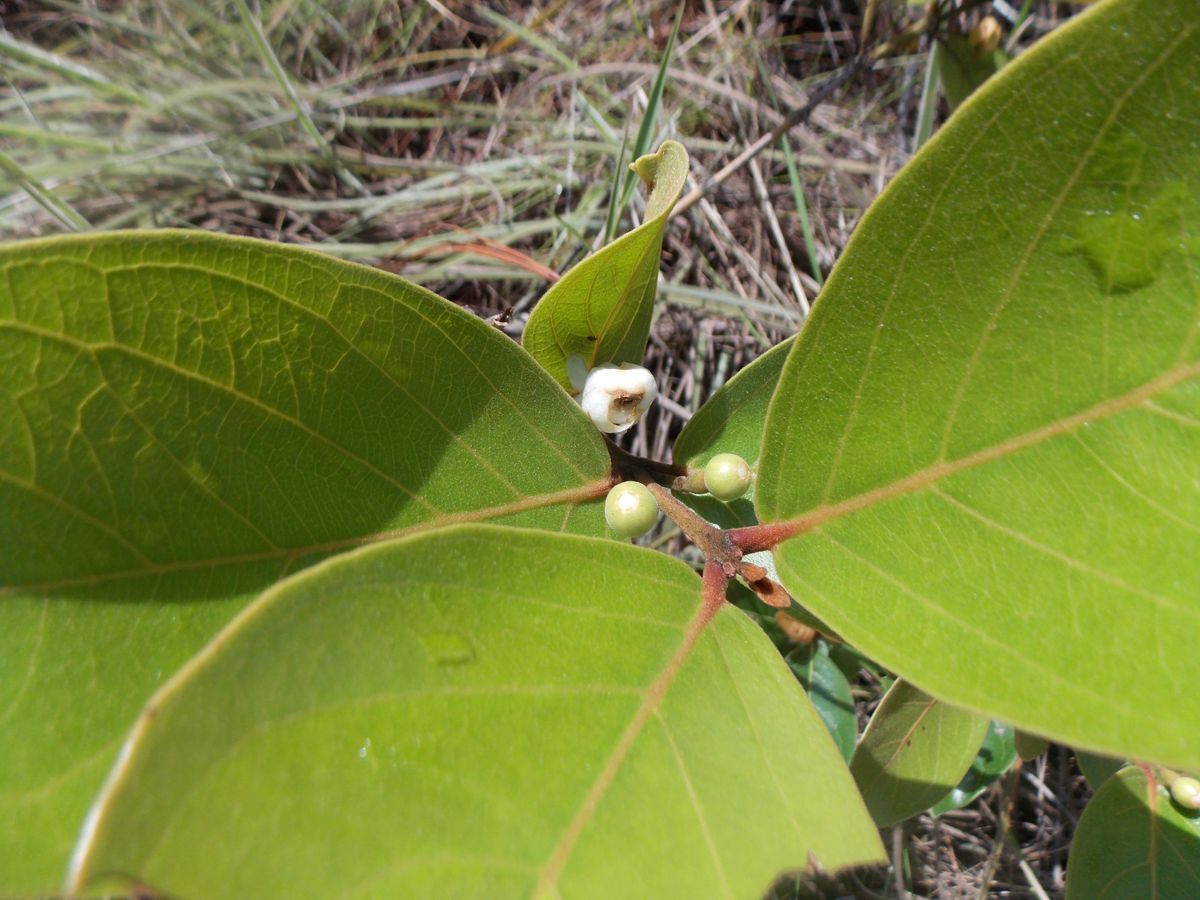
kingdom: Plantae
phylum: Tracheophyta
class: Magnoliopsida
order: Myrtales
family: Myrtaceae
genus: Psidium
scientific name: Psidium guineense
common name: Brazilian guava
